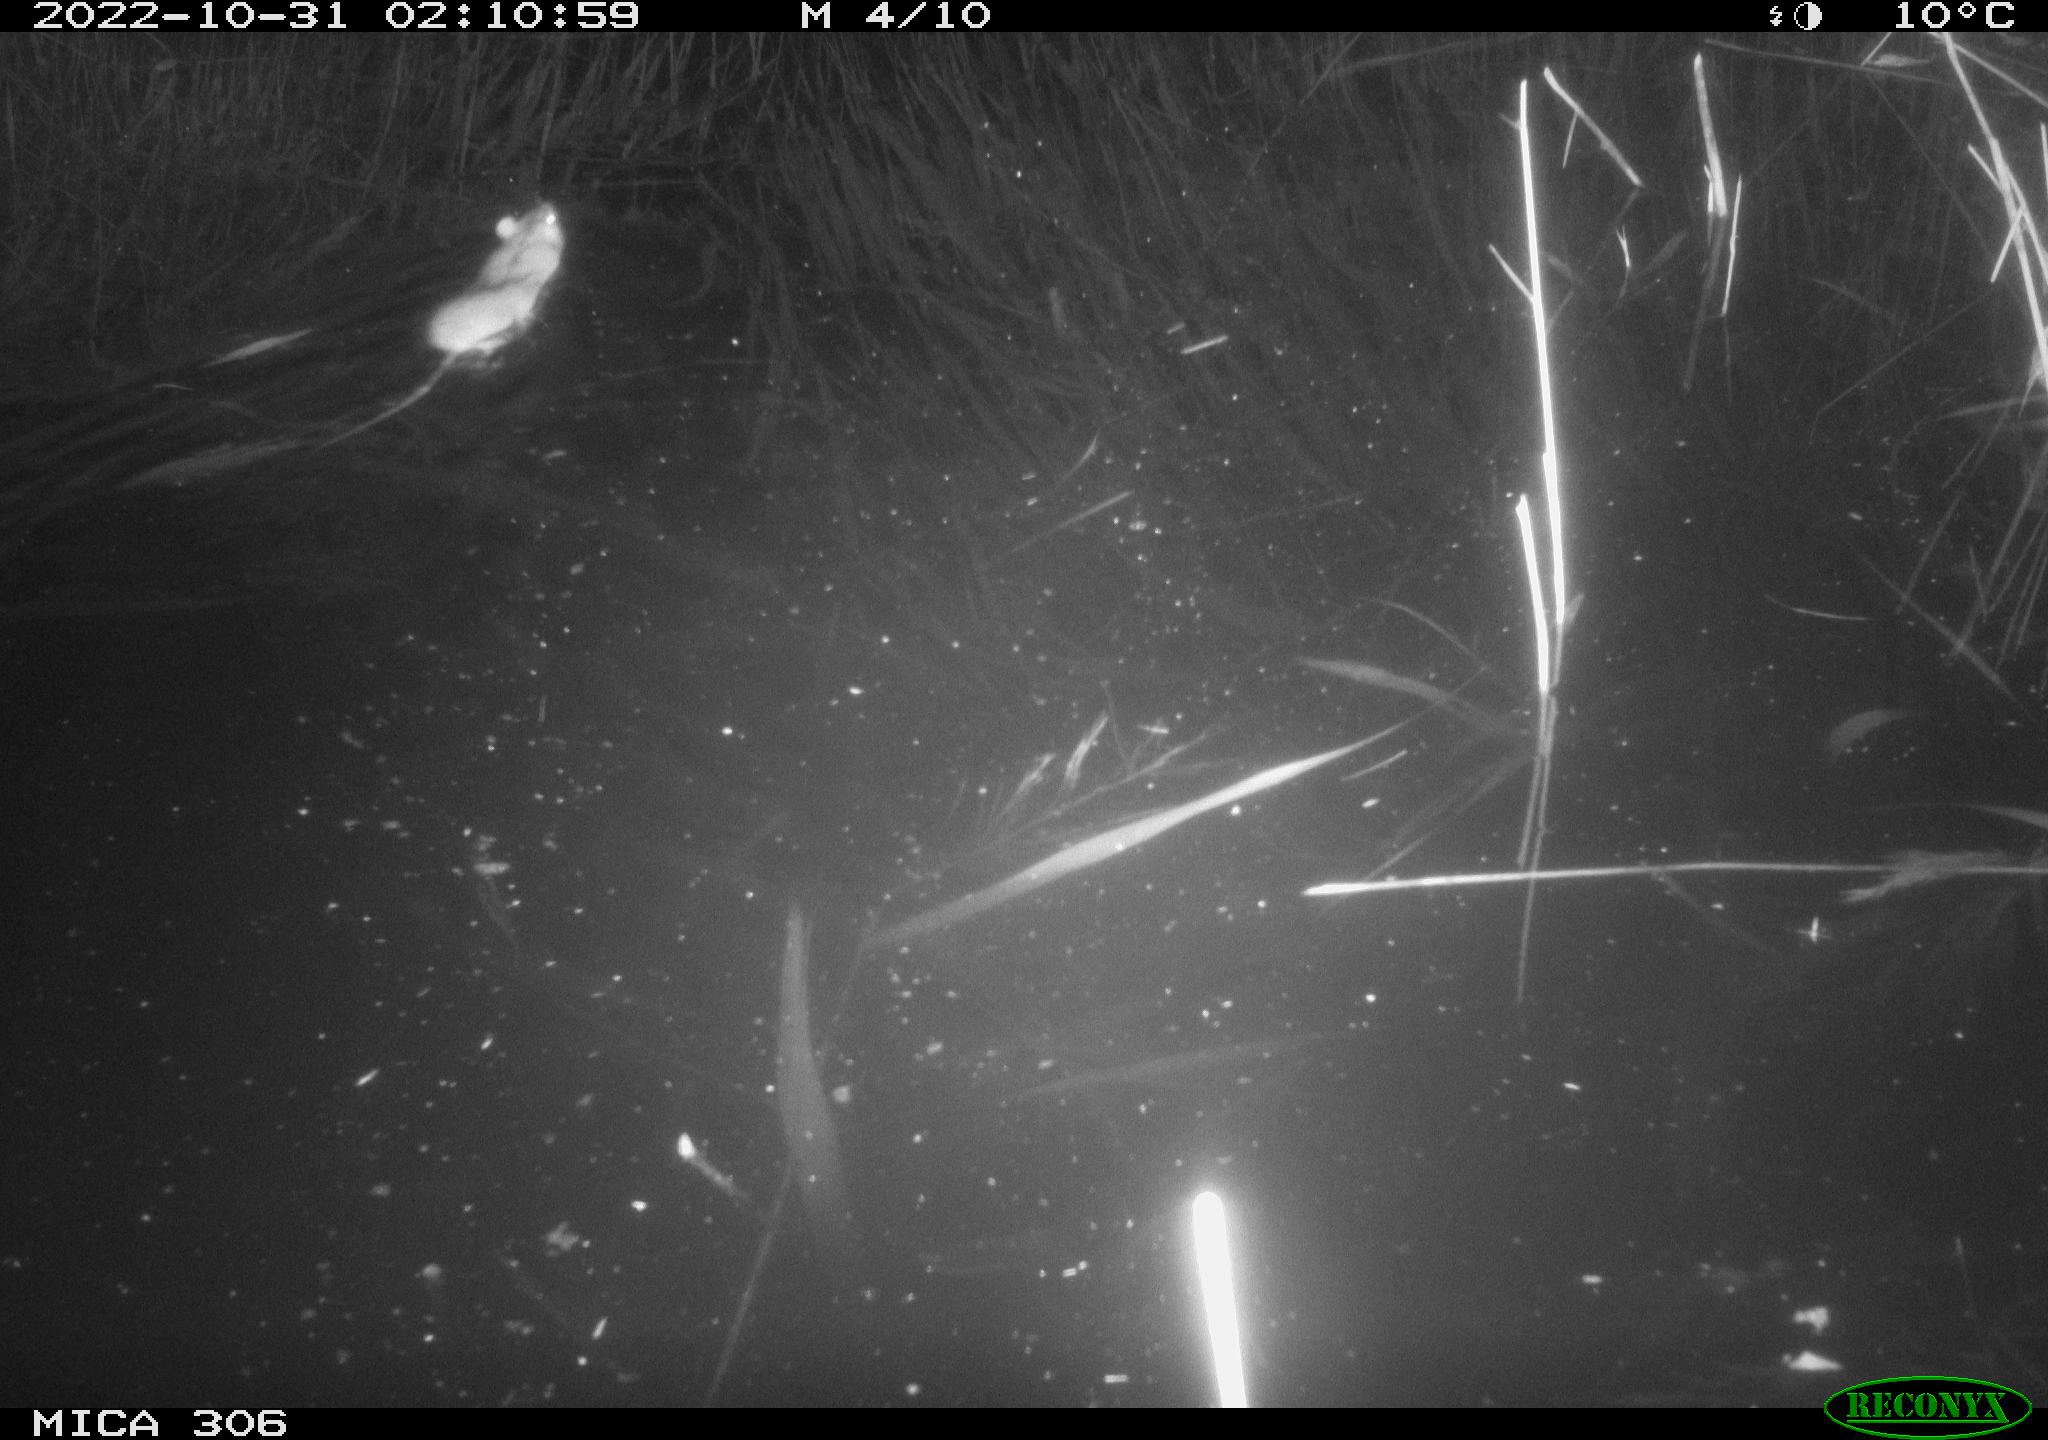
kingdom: Animalia
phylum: Chordata
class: Mammalia
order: Rodentia
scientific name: Rodentia
